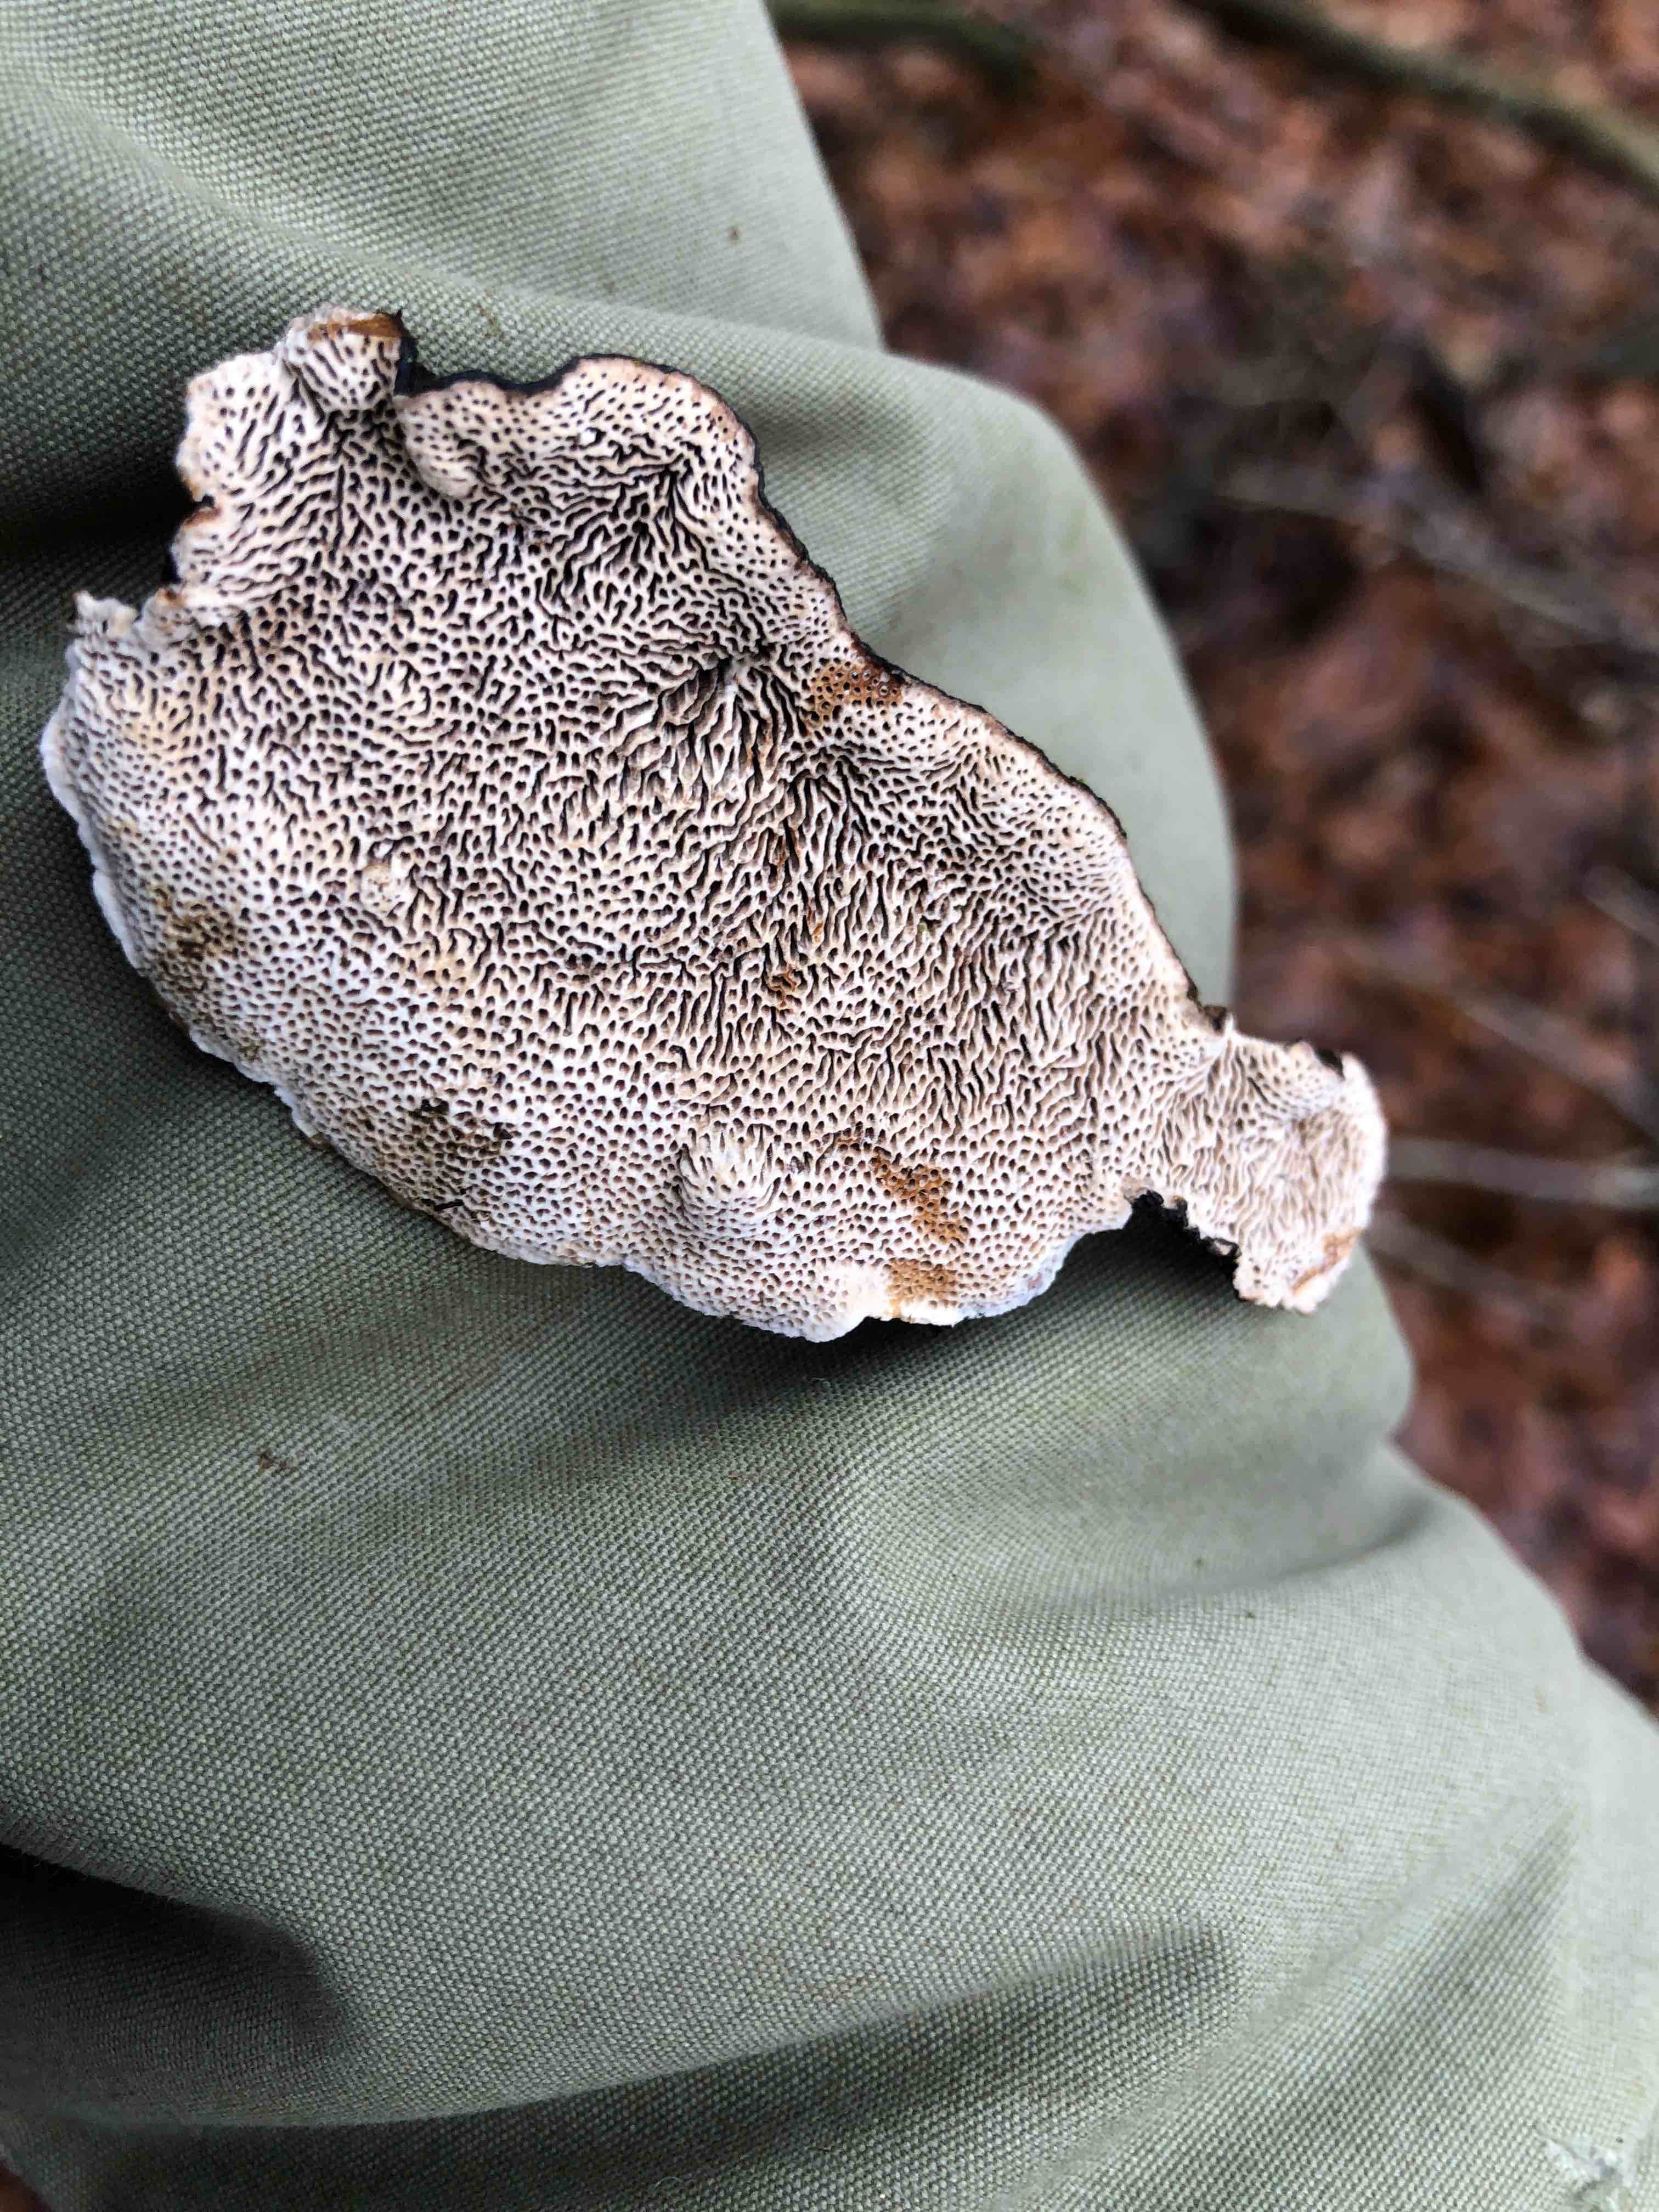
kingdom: Fungi
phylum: Basidiomycota
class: Agaricomycetes
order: Polyporales
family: Polyporaceae
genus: Podofomes
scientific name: Podofomes mollis
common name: blød begporesvamp
